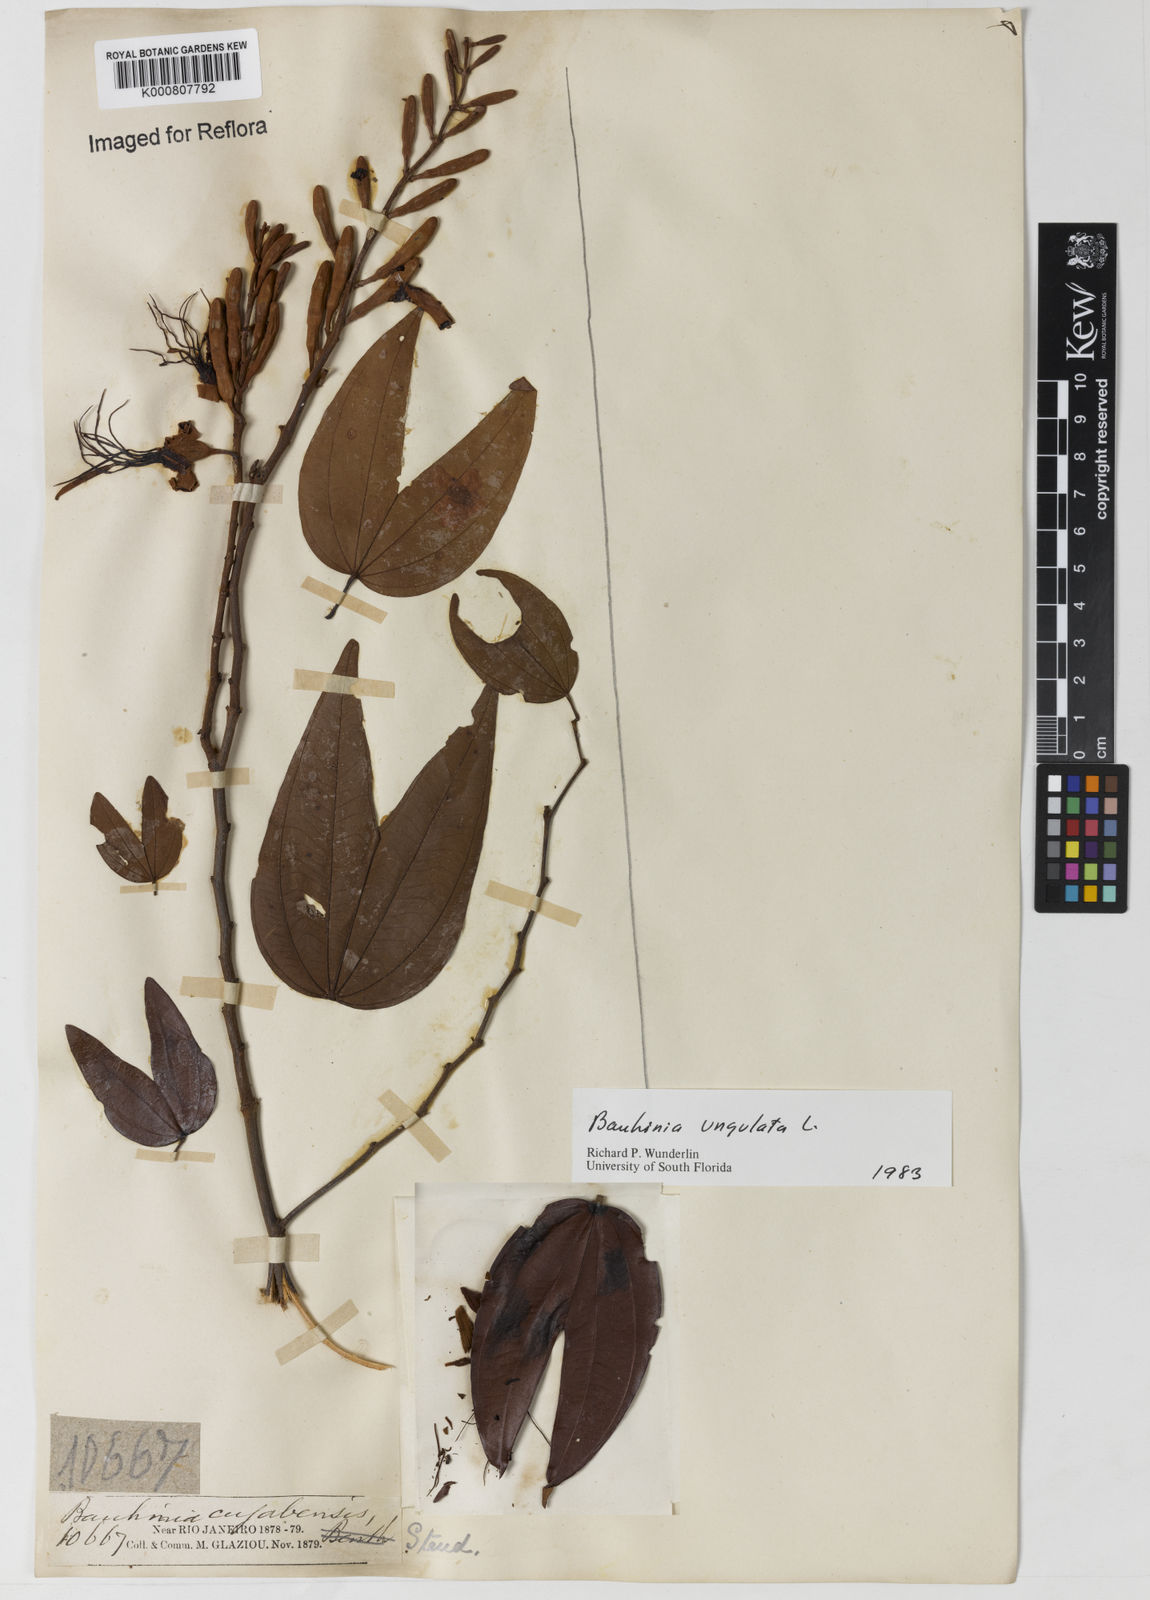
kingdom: Plantae
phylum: Tracheophyta
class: Magnoliopsida
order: Fabales
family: Fabaceae
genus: Bauhinia
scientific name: Bauhinia ungulata
